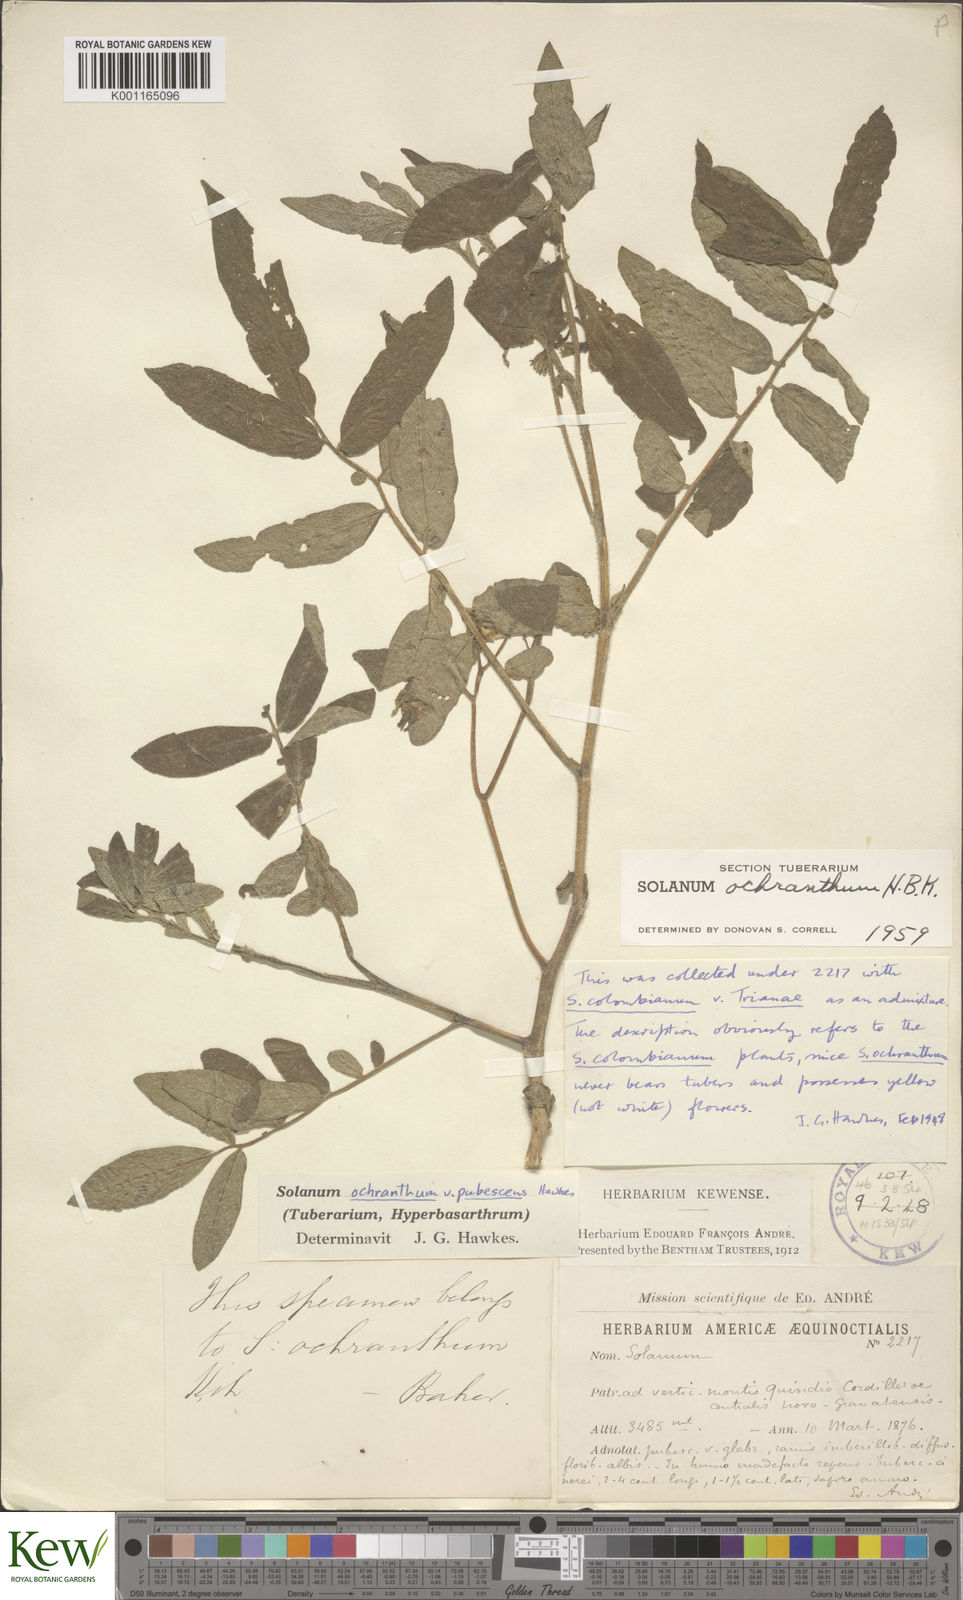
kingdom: Plantae
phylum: Tracheophyta
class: Magnoliopsida
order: Solanales
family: Solanaceae
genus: Solanum
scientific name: Solanum ochranthum
